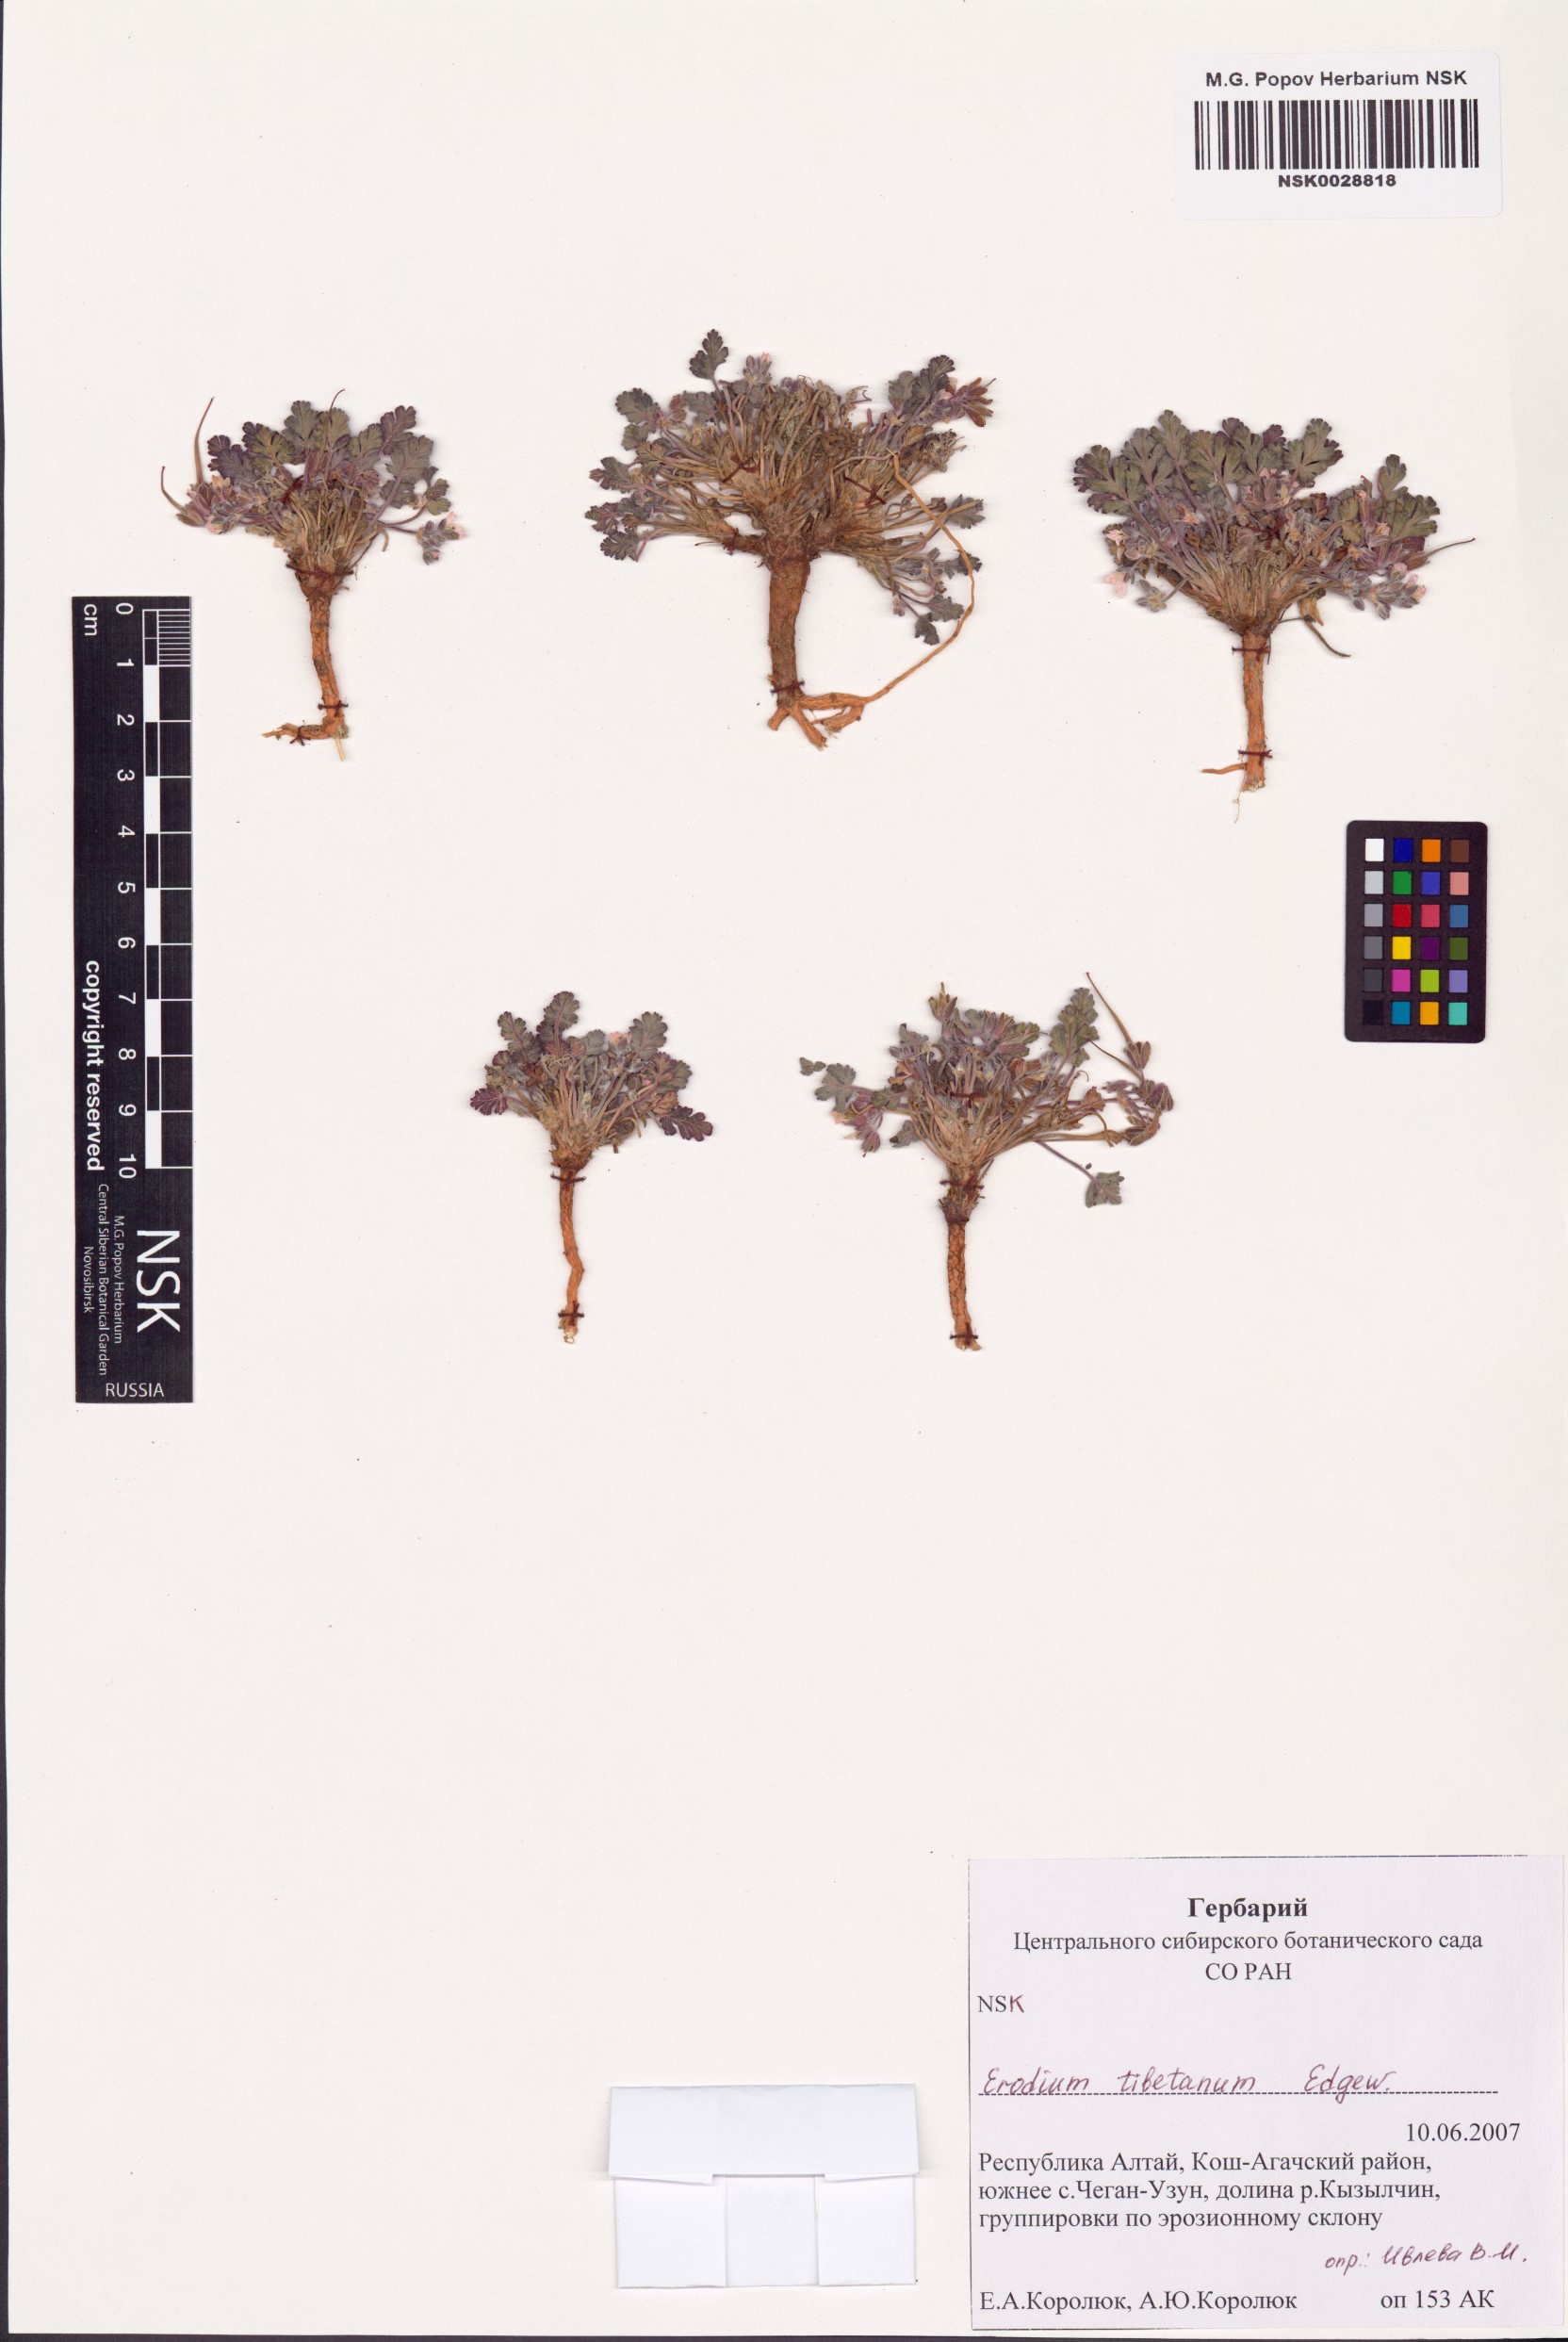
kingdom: Plantae
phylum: Tracheophyta
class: Magnoliopsida
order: Geraniales
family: Geraniaceae
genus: Erodium
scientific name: Erodium tibetanum
